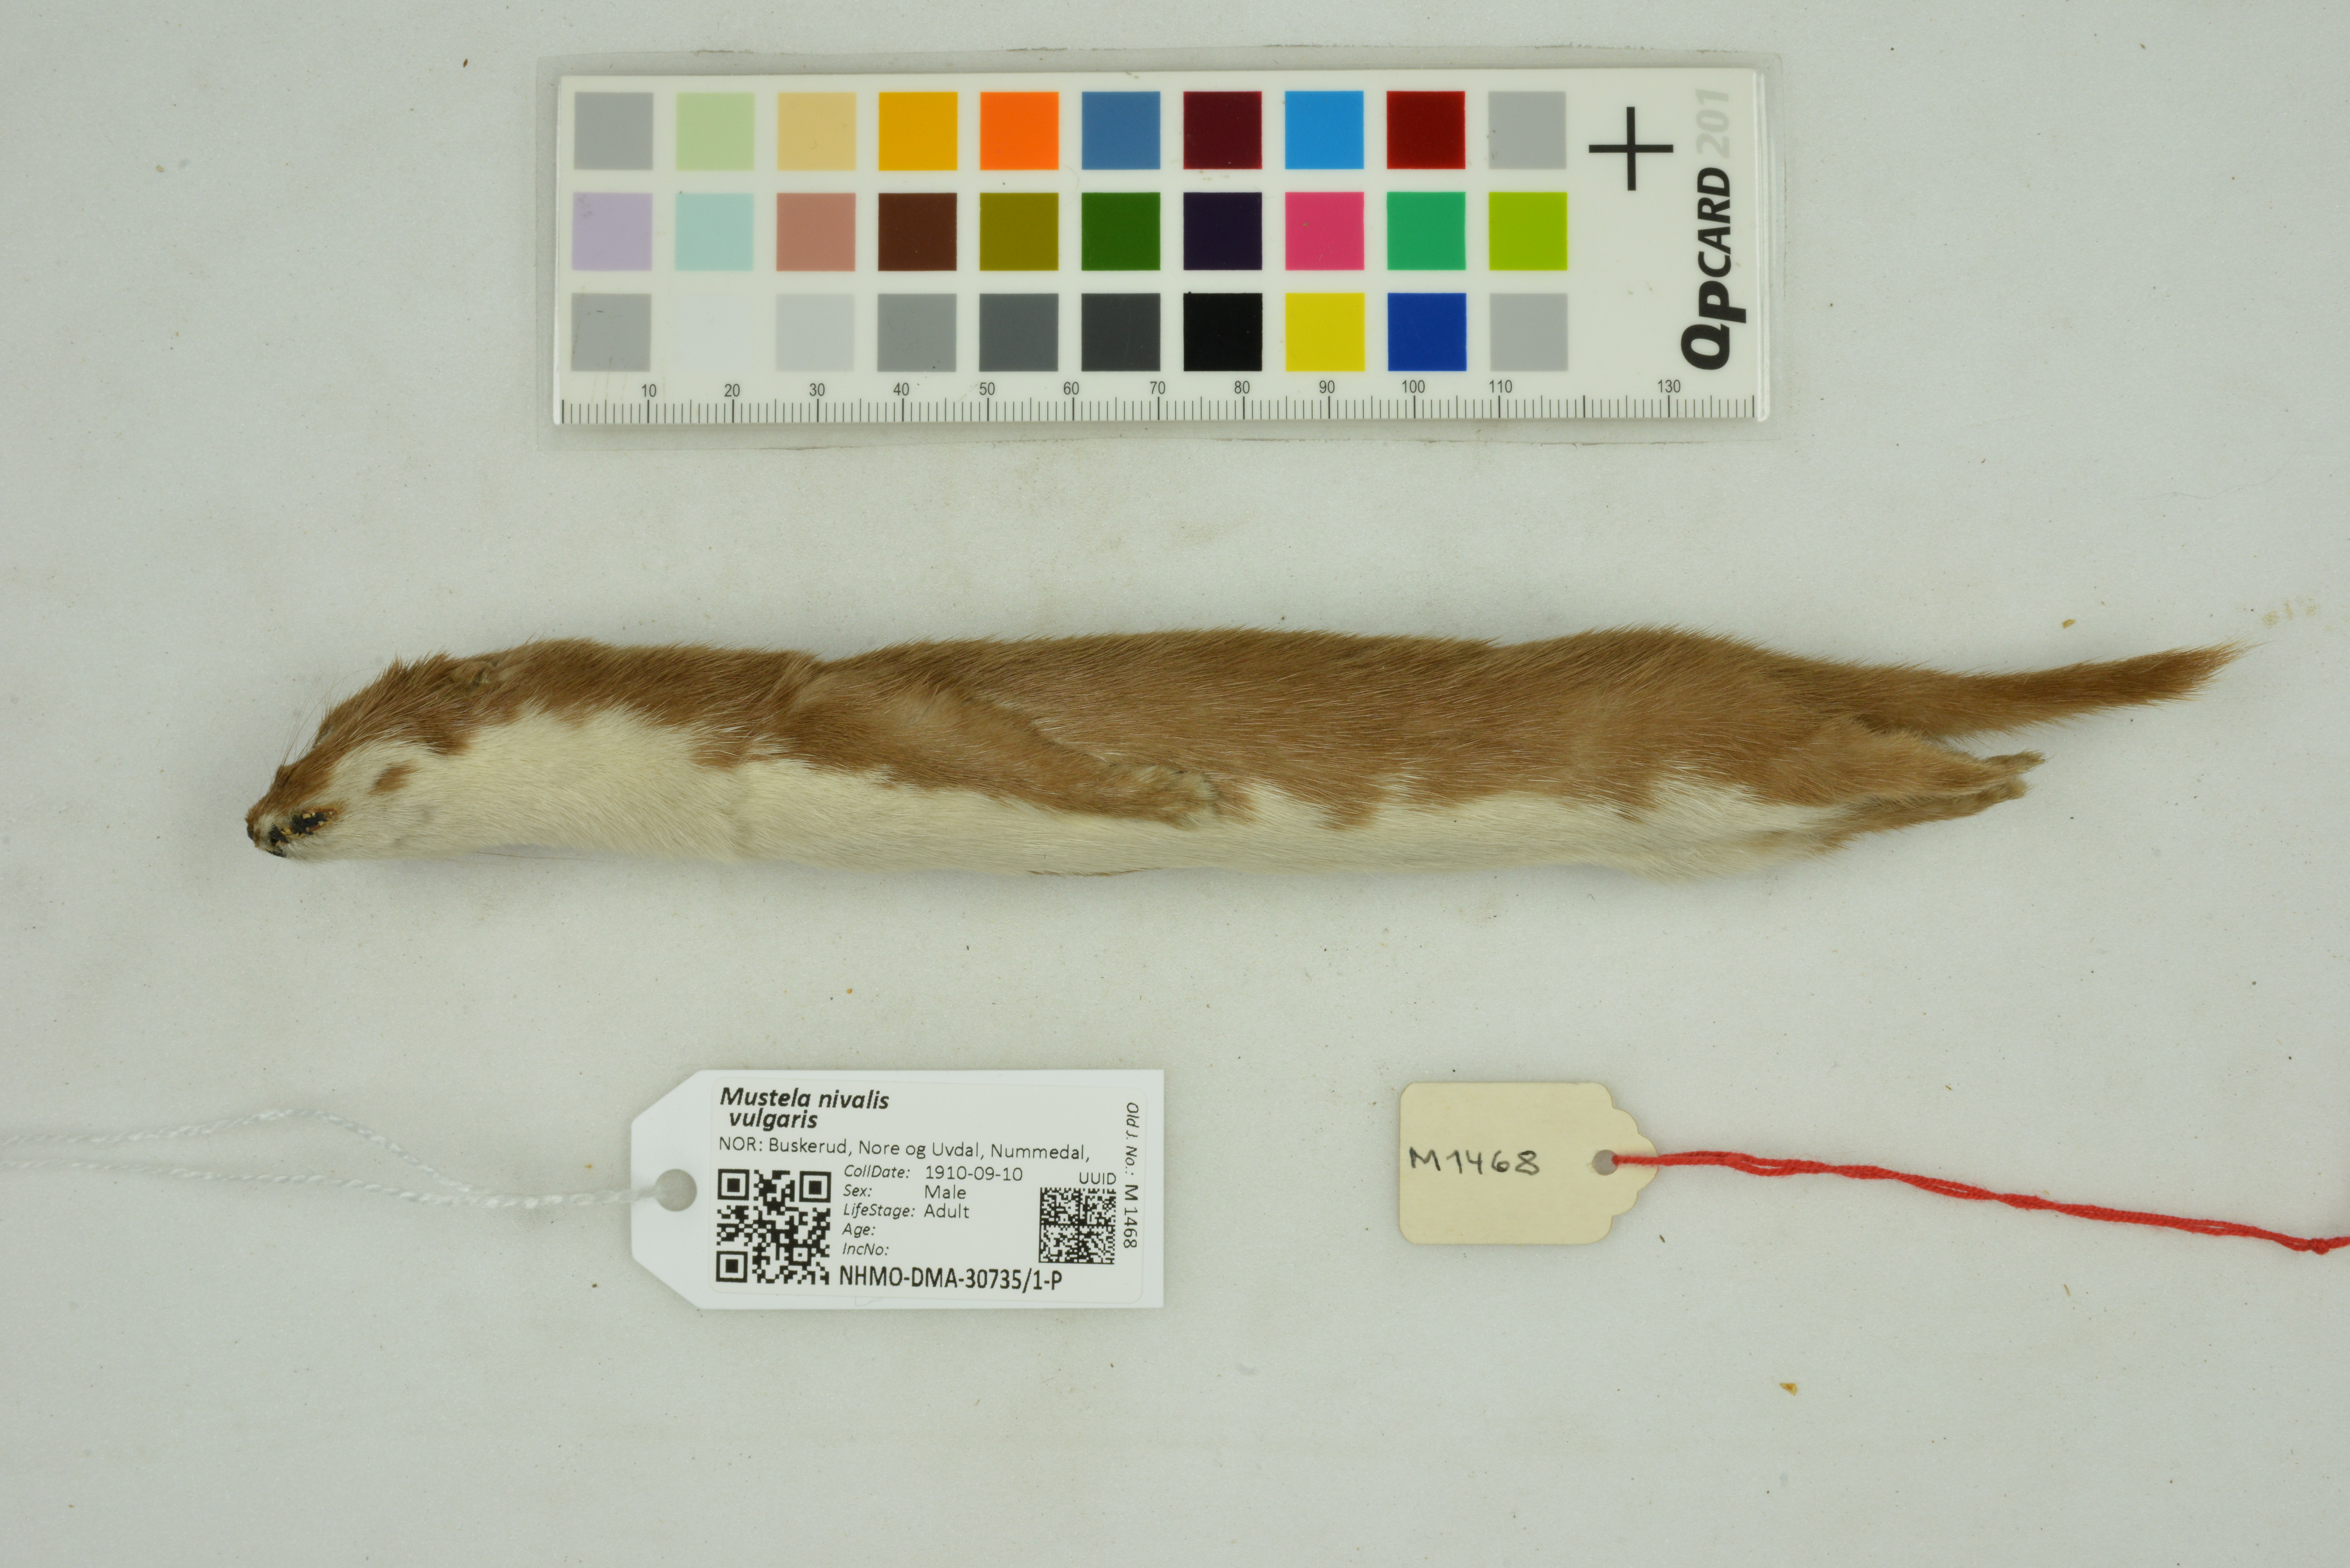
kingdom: Animalia
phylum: Chordata
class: Mammalia
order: Carnivora
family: Mustelidae
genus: Mustela
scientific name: Mustela nivalis
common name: Least weasel
